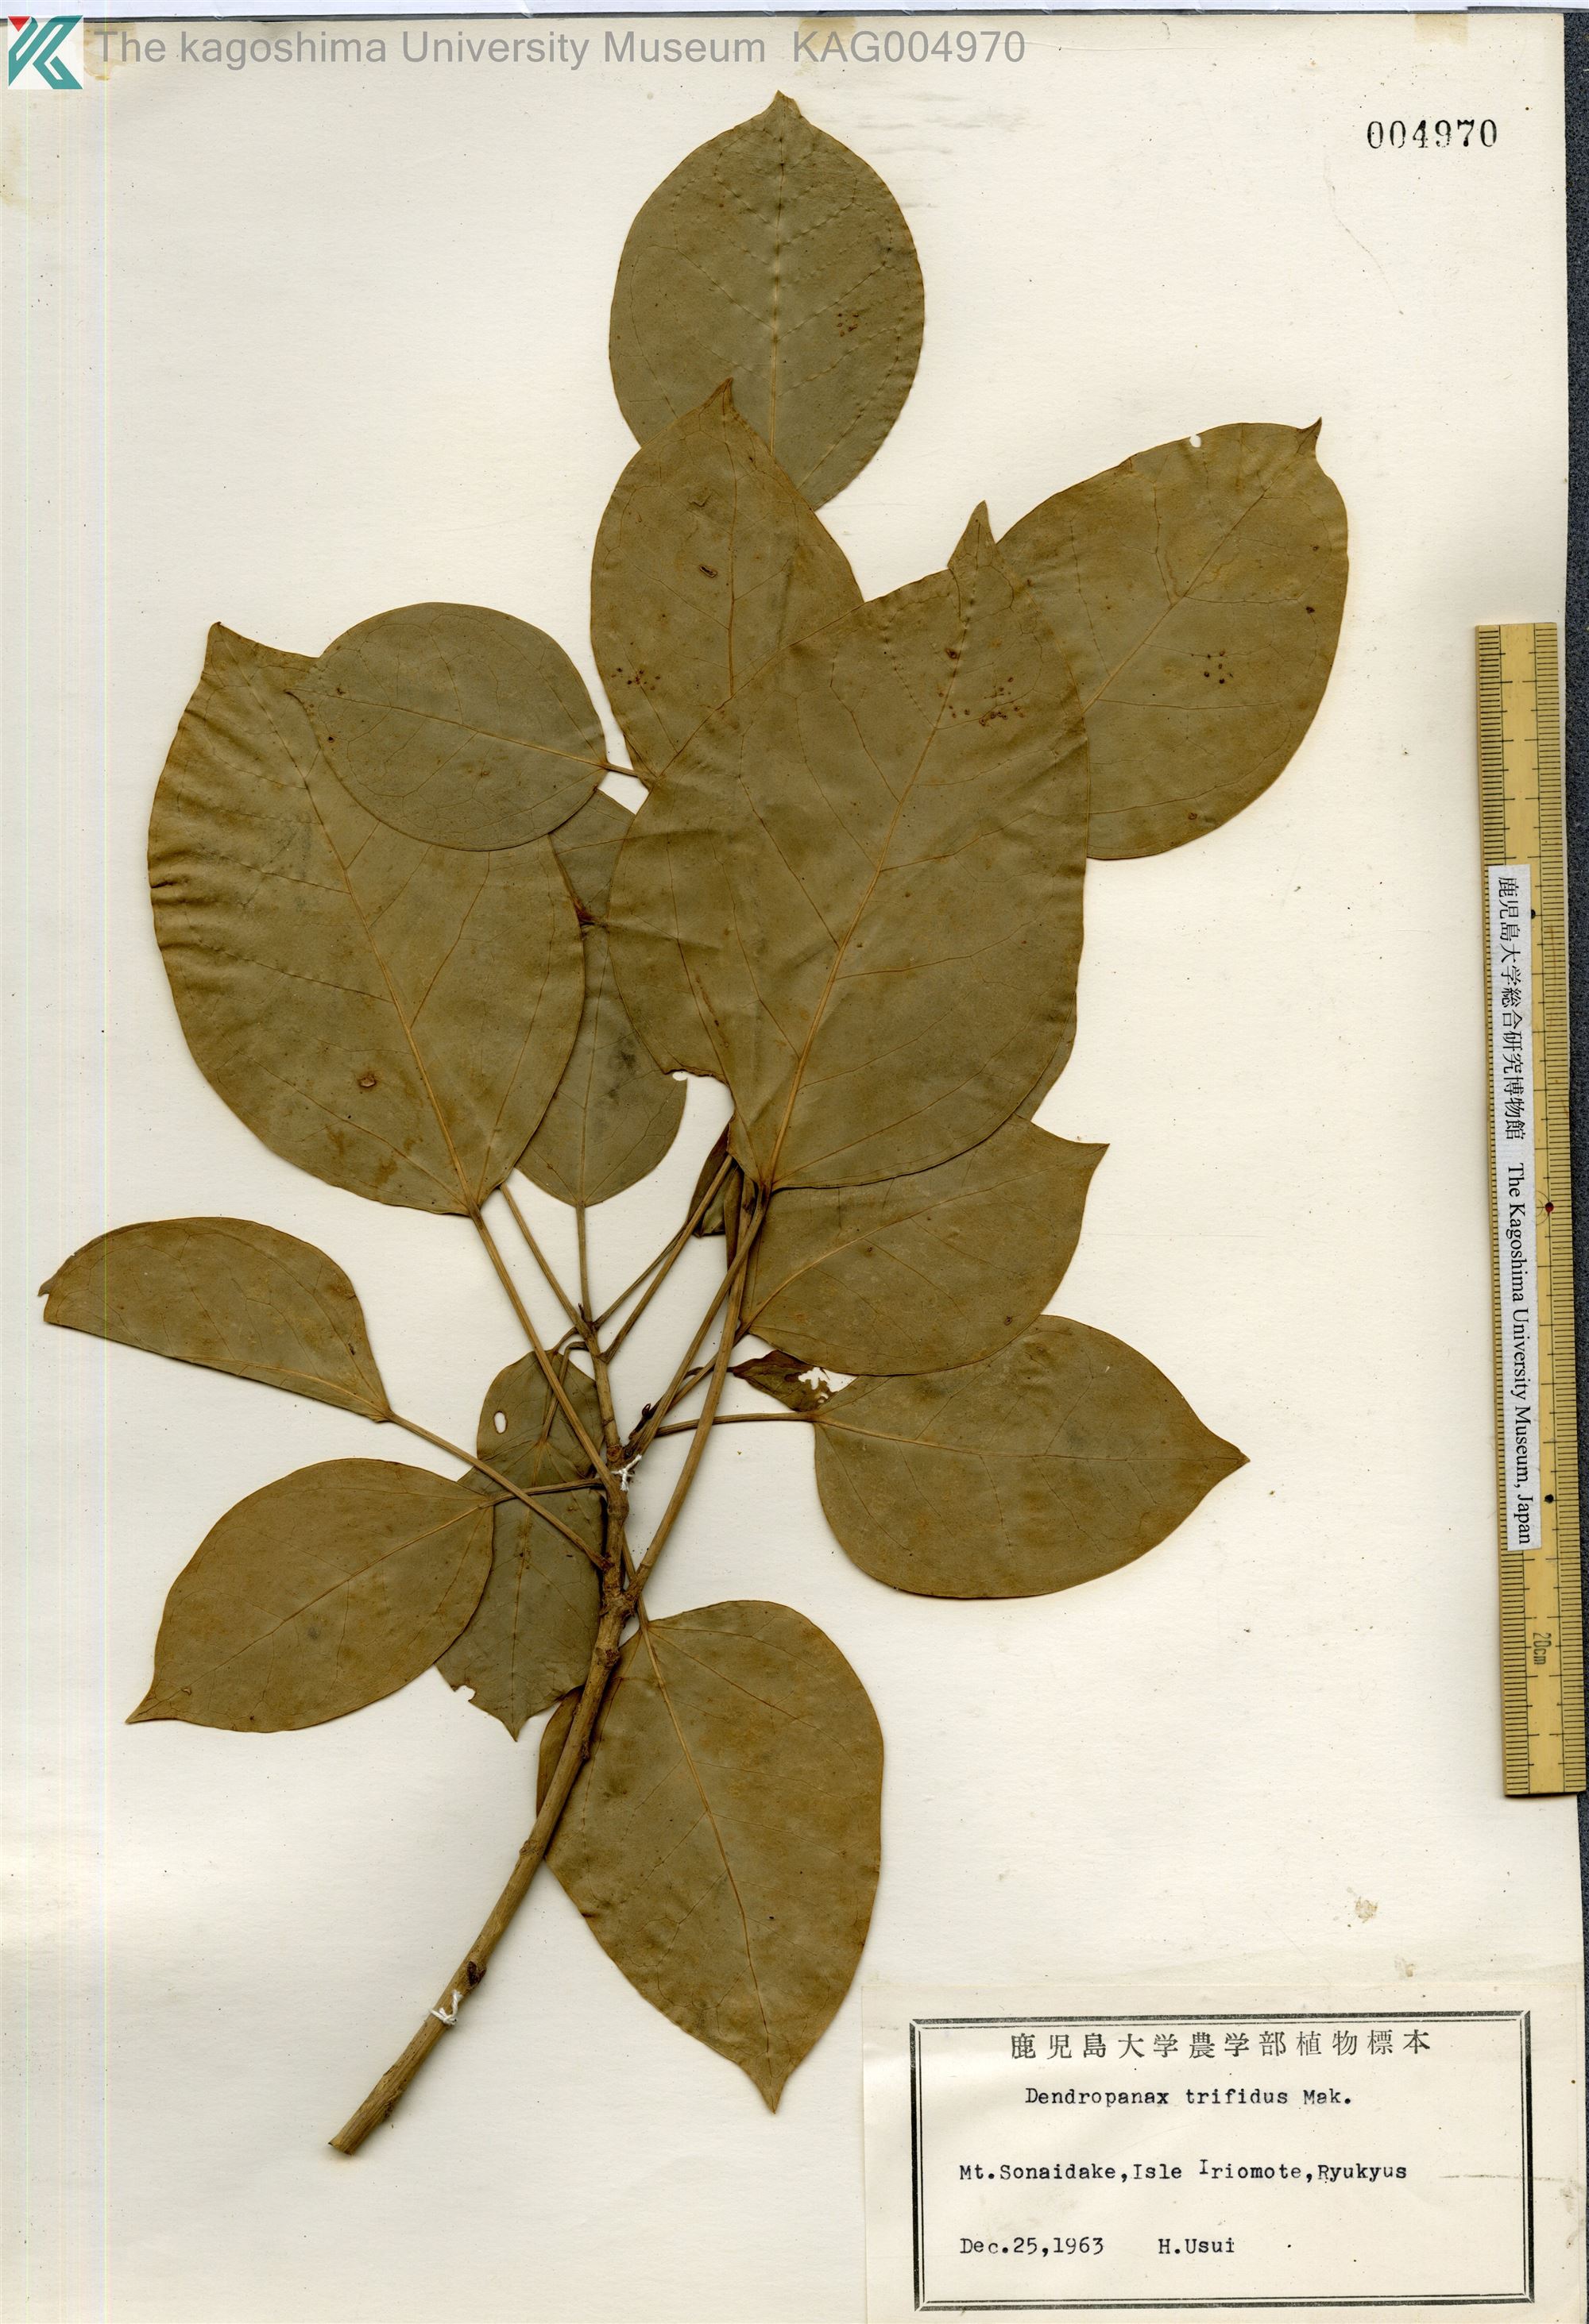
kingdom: Plantae
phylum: Tracheophyta
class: Magnoliopsida
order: Apiales
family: Araliaceae
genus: Dendropanax
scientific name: Dendropanax trifidus
